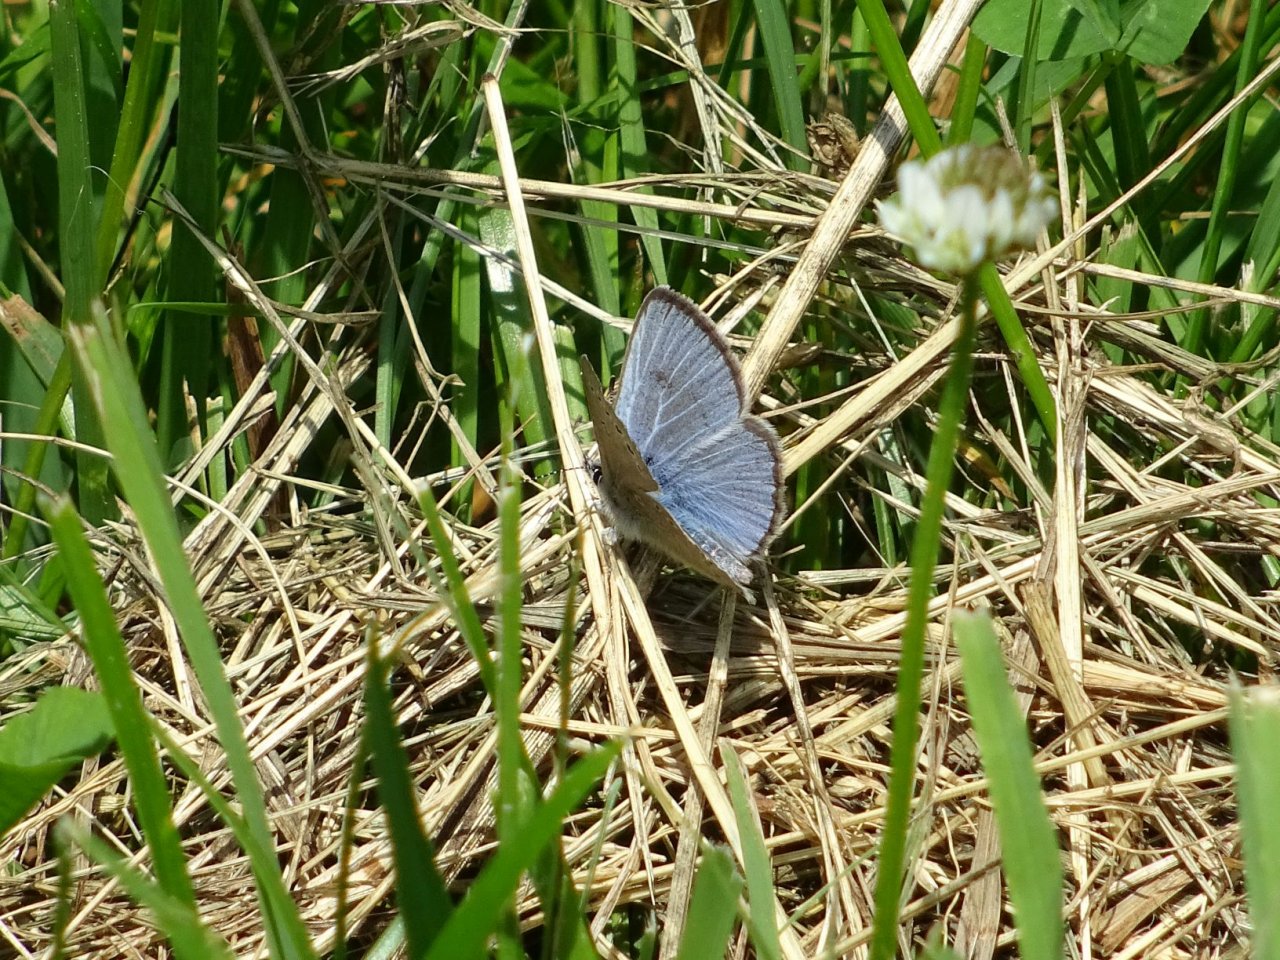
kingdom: Animalia
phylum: Arthropoda
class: Insecta
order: Lepidoptera
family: Lycaenidae
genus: Glaucopsyche
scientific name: Glaucopsyche lygdamus
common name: Silvery Blue
